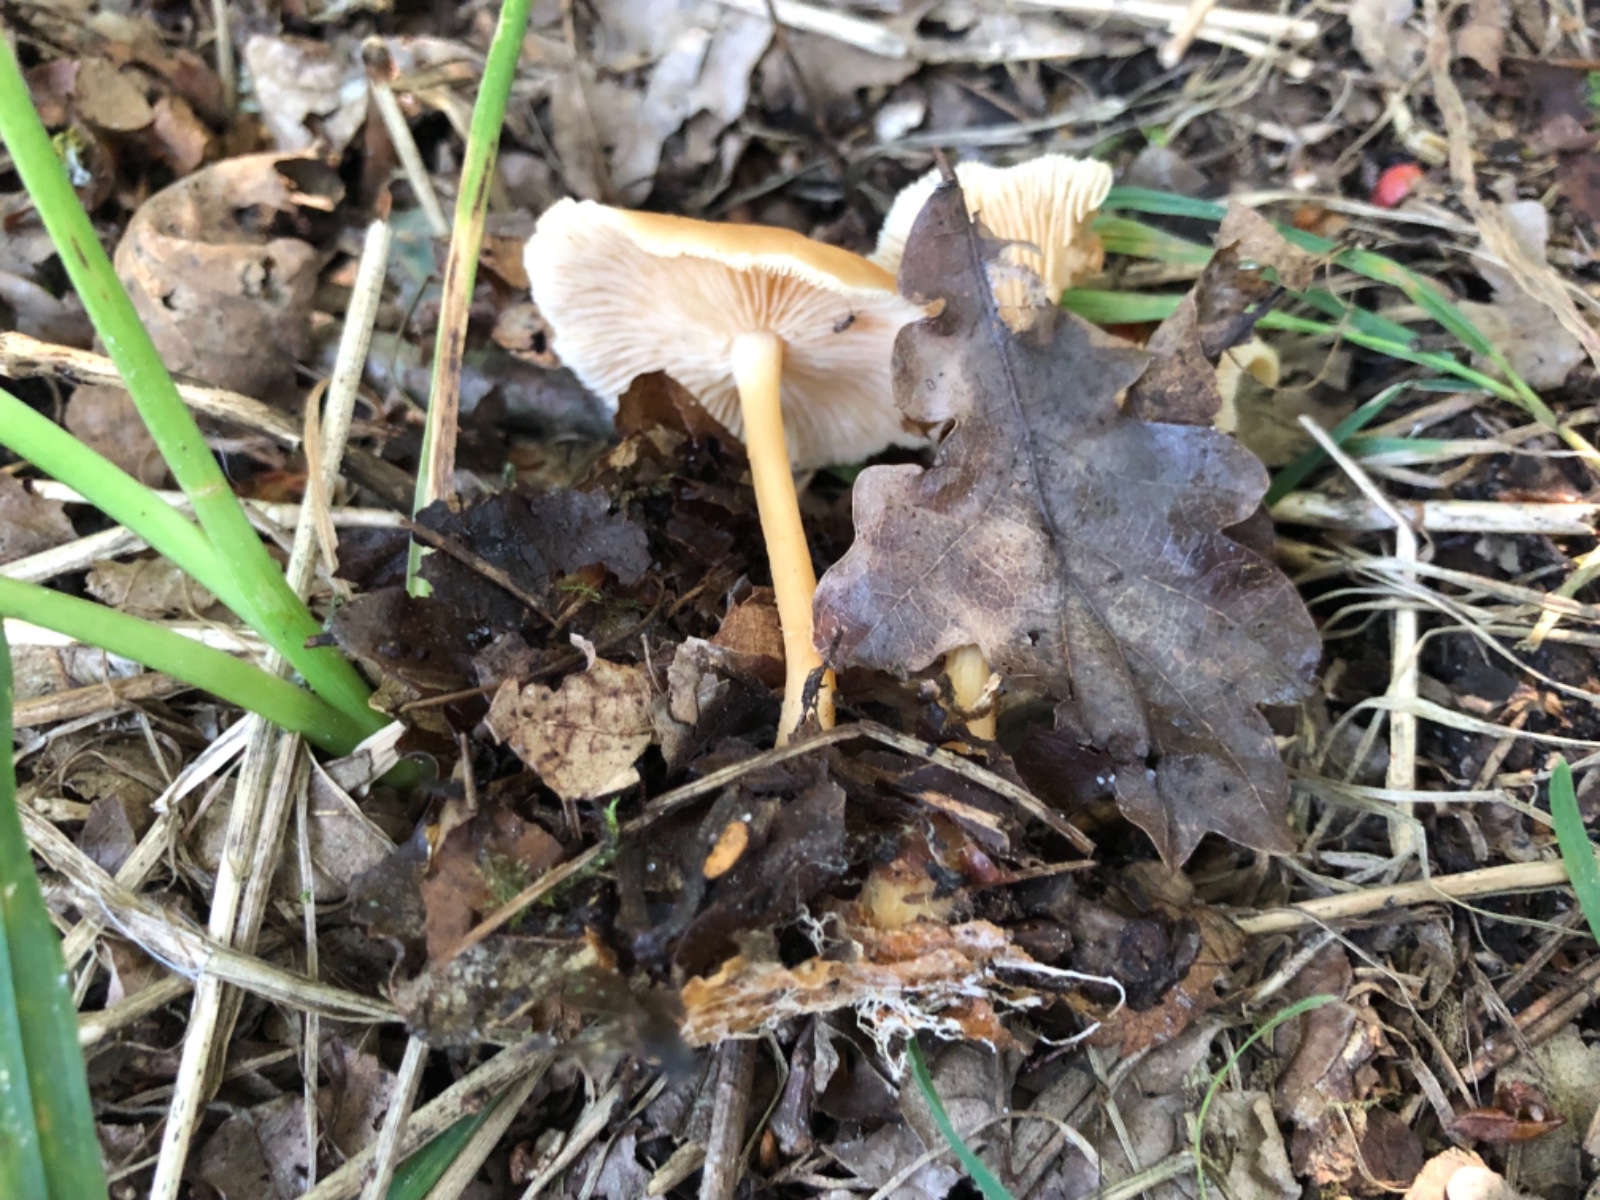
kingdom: Fungi
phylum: Basidiomycota
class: Agaricomycetes
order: Agaricales
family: Omphalotaceae
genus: Gymnopus
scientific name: Gymnopus dryophilus
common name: løv-fladhat
